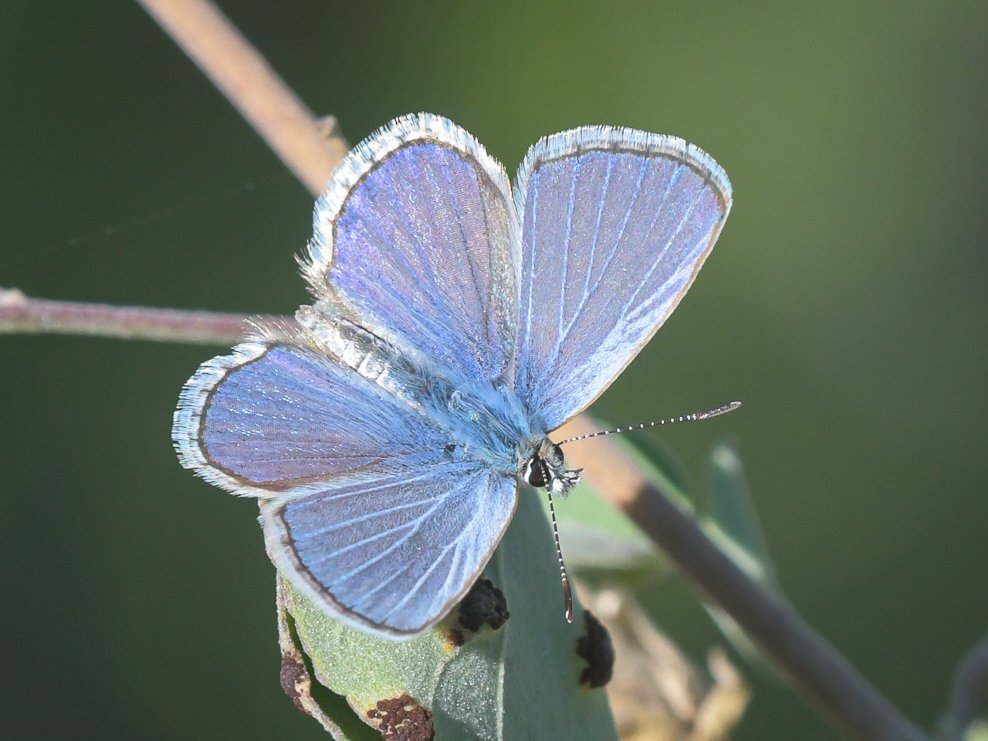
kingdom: Animalia
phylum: Arthropoda
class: Insecta
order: Lepidoptera
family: Lycaenidae
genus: Hemiargus
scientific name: Hemiargus ceraunus
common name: Ceraunus Blue
